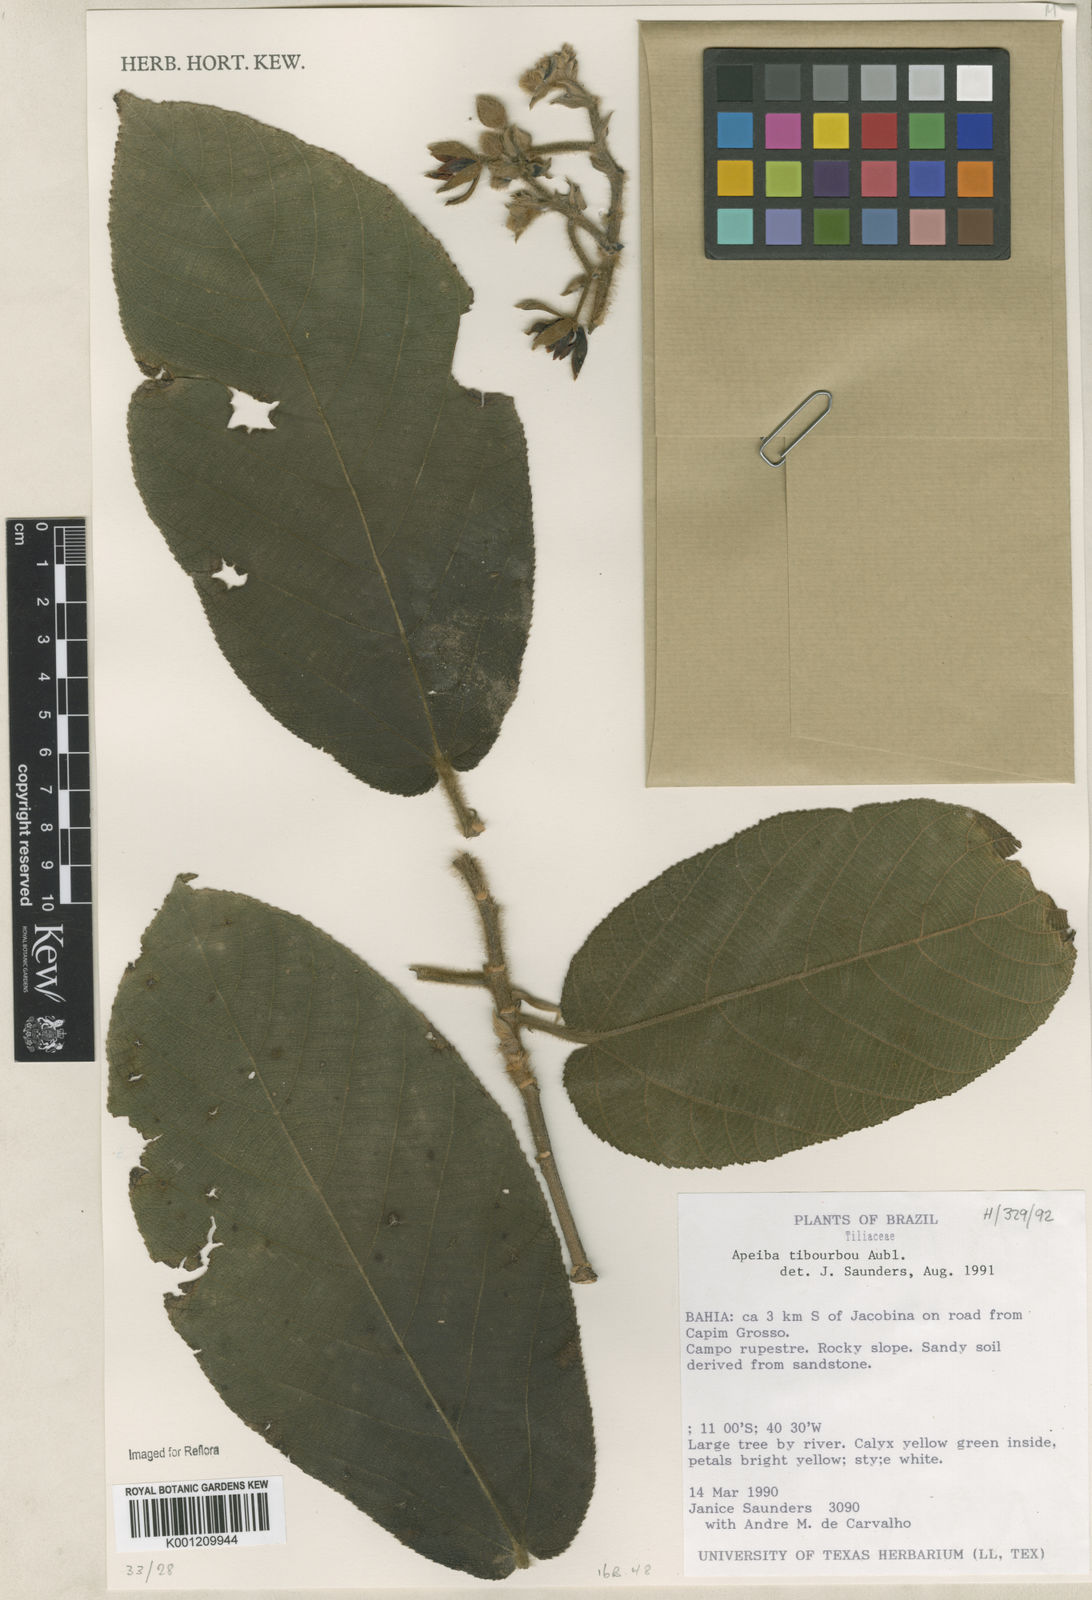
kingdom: Plantae
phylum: Tracheophyta
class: Magnoliopsida
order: Malvales
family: Malvaceae
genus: Apeiba
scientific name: Apeiba tibourbou
